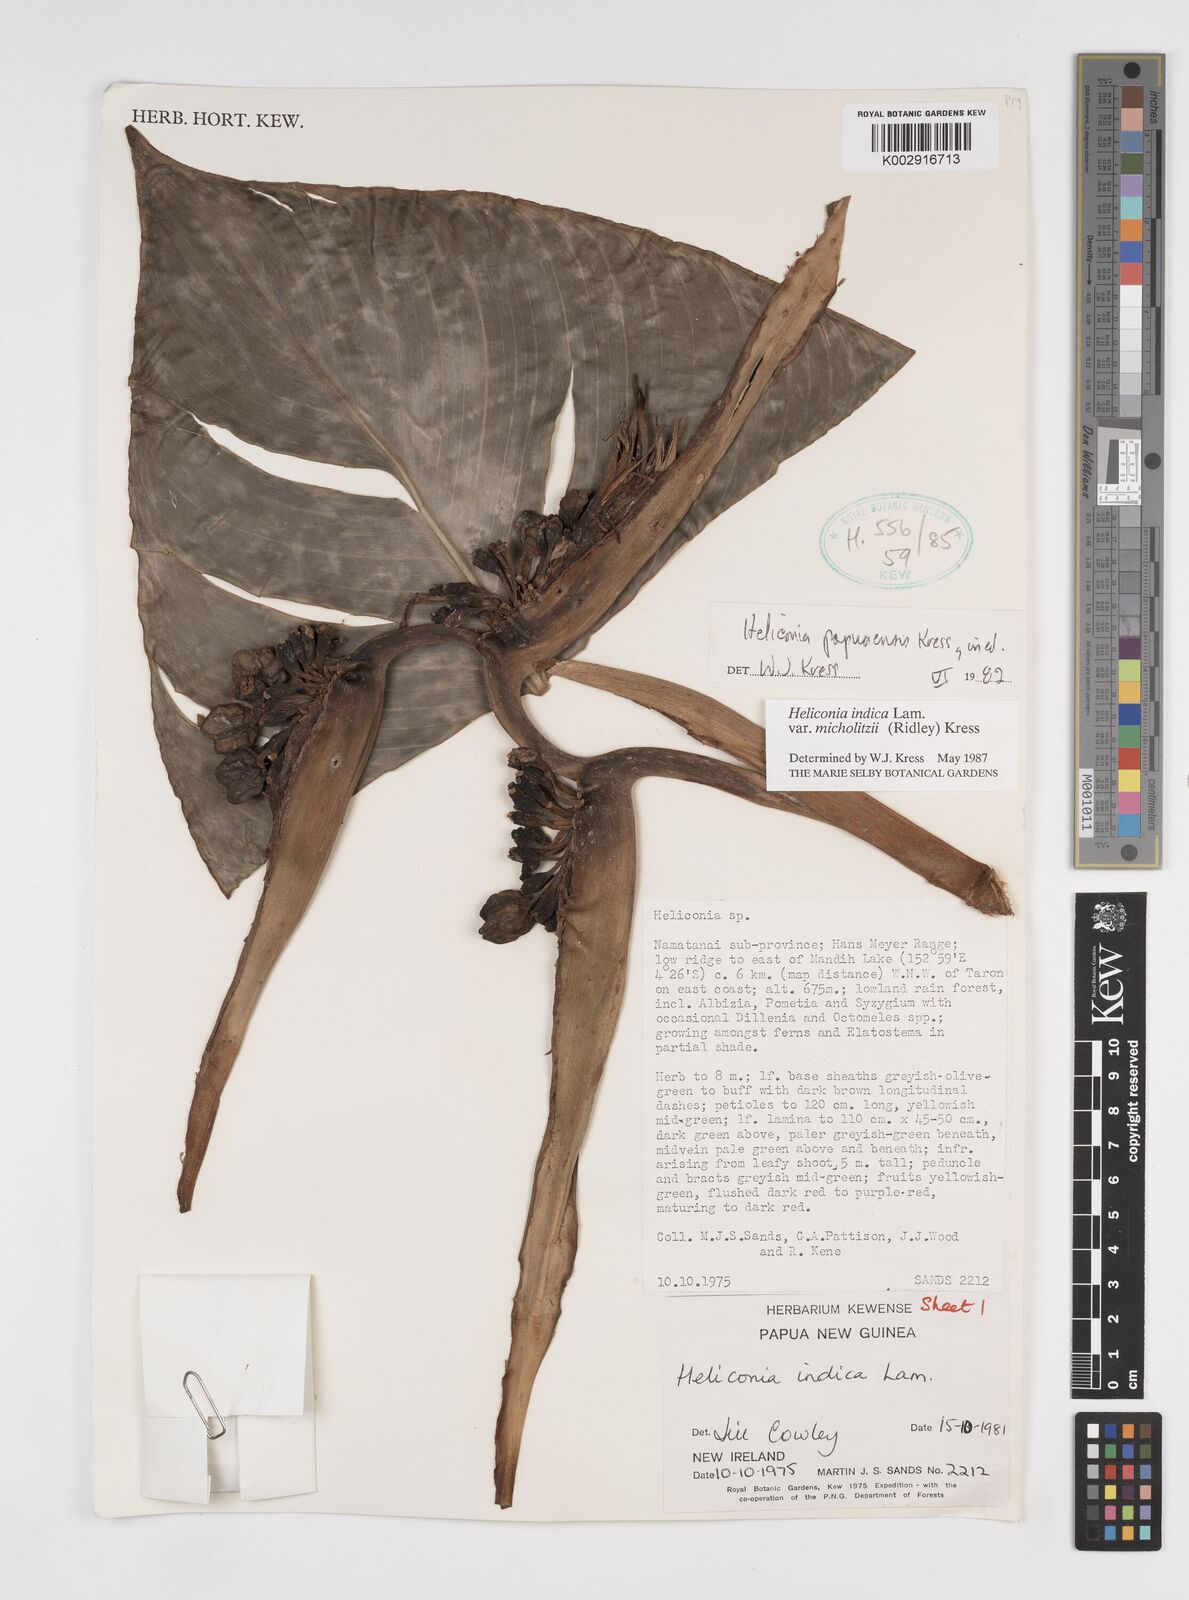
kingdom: Plantae
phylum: Tracheophyta
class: Liliopsida
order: Zingiberales
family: Heliconiaceae
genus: Heliconia
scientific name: Heliconia indica
